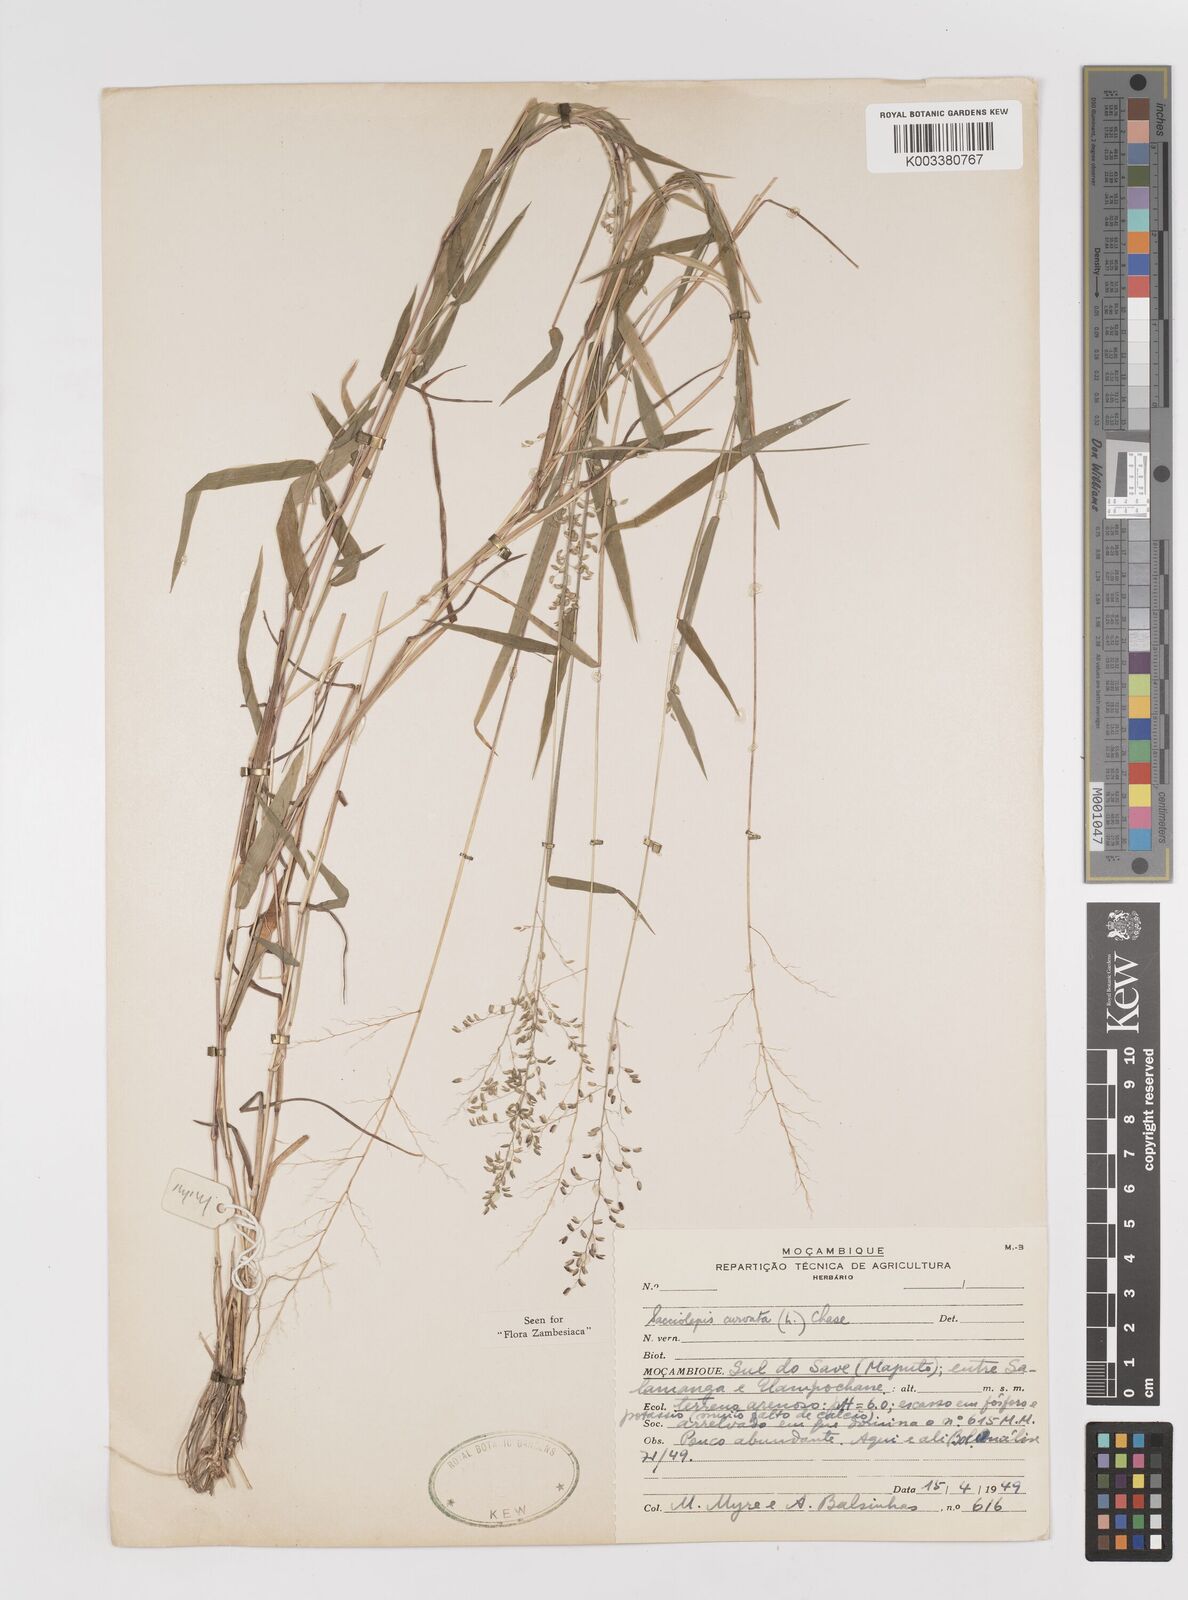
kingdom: Plantae
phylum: Tracheophyta
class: Liliopsida
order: Poales
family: Poaceae
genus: Sacciolepis
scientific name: Sacciolepis curvata
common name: Forest hood grass
